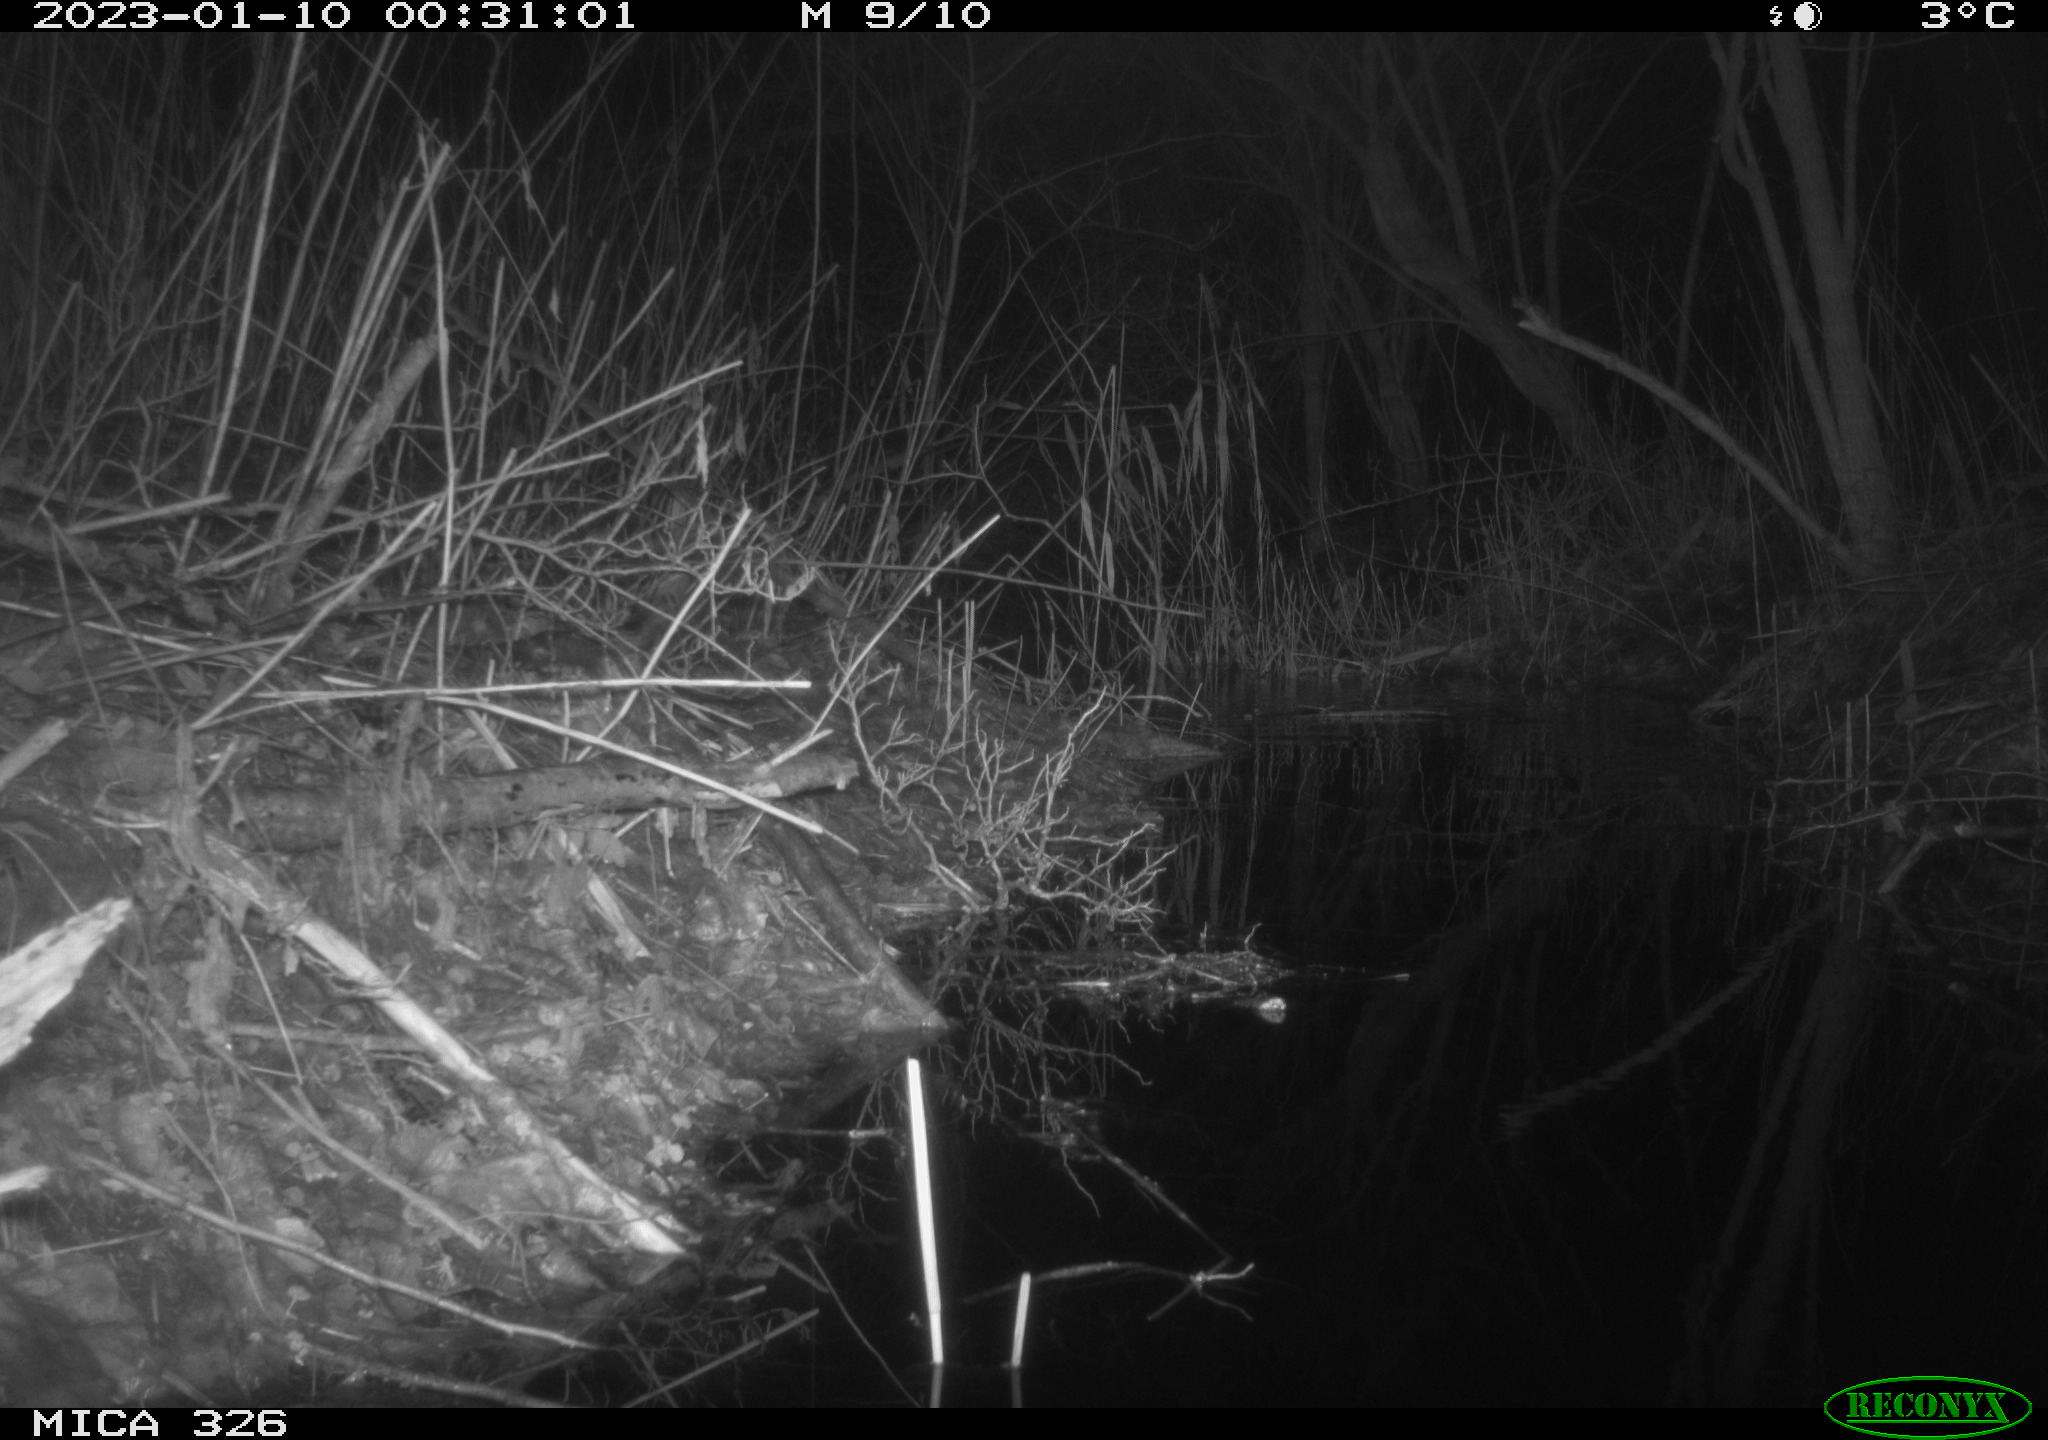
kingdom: Animalia
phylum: Chordata
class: Mammalia
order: Lagomorpha
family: Leporidae
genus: Lepus
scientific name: Lepus europaeus
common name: European hare
